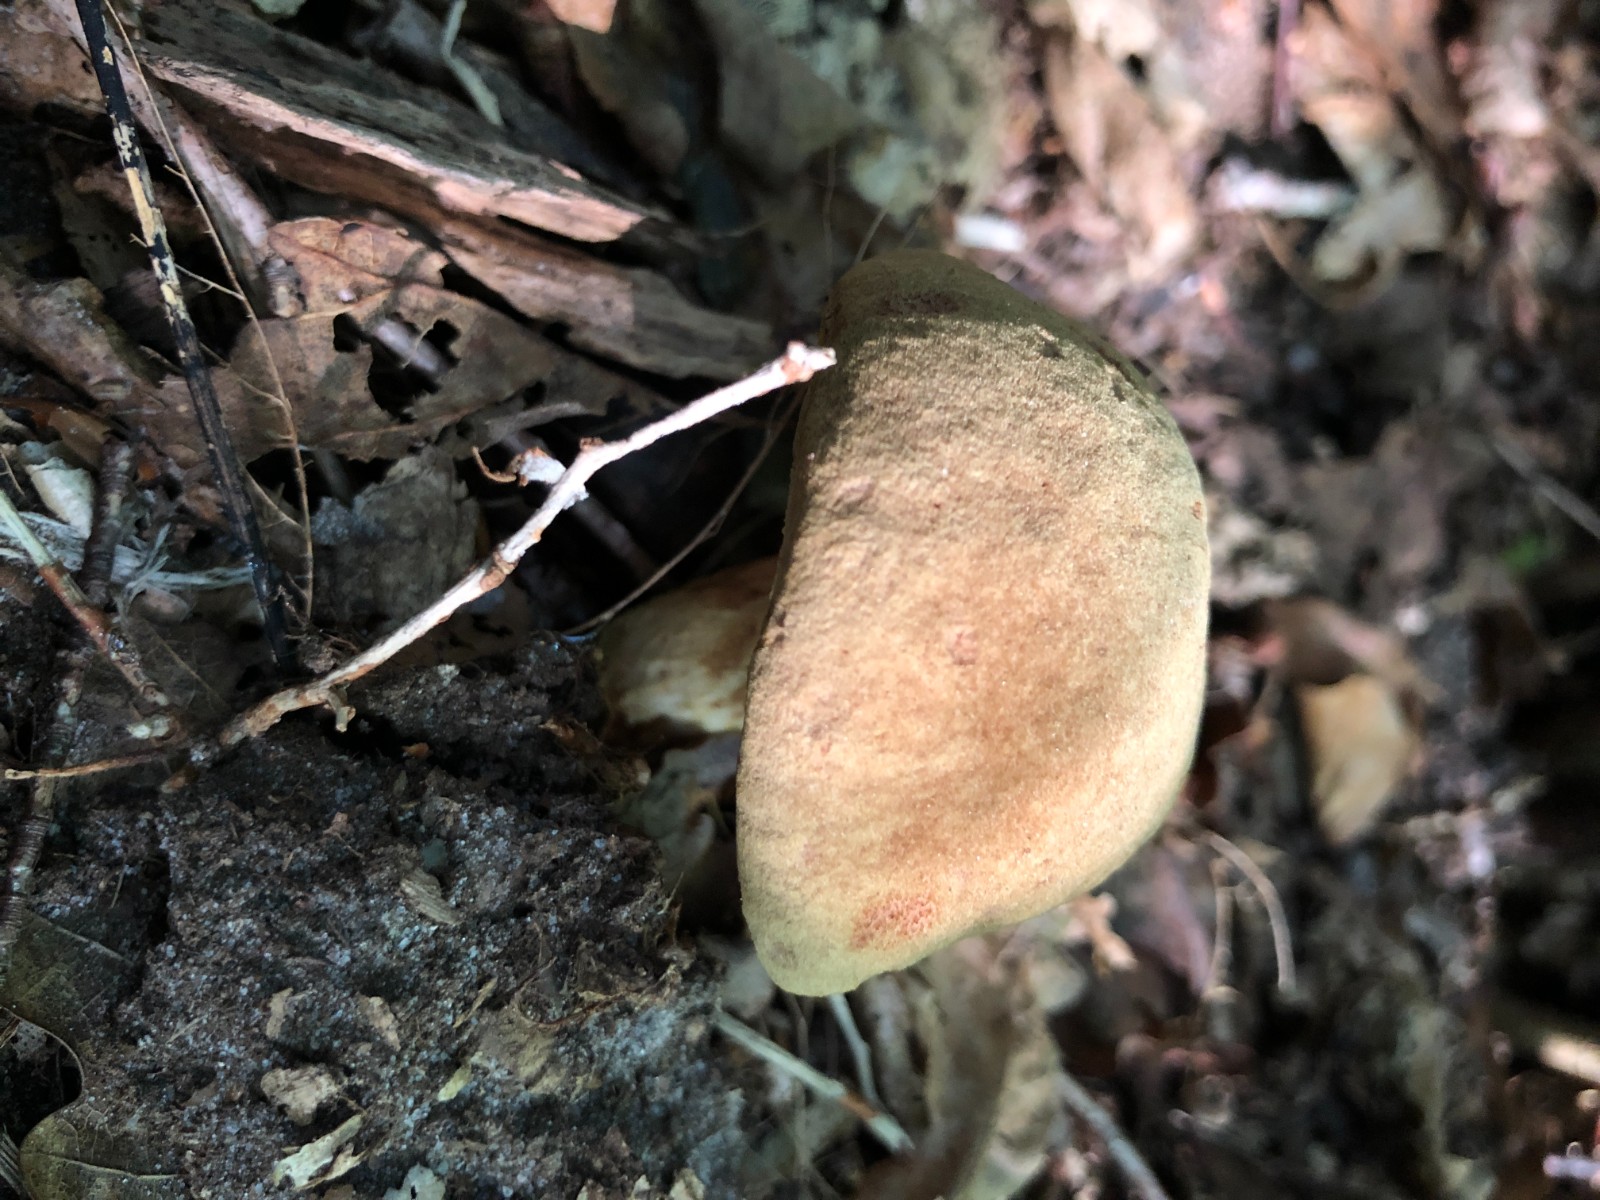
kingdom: Fungi
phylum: Basidiomycota
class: Agaricomycetes
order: Boletales
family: Boletaceae
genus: Xerocomus
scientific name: Xerocomus ferrugineus
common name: vaskeskinds-rørhat
